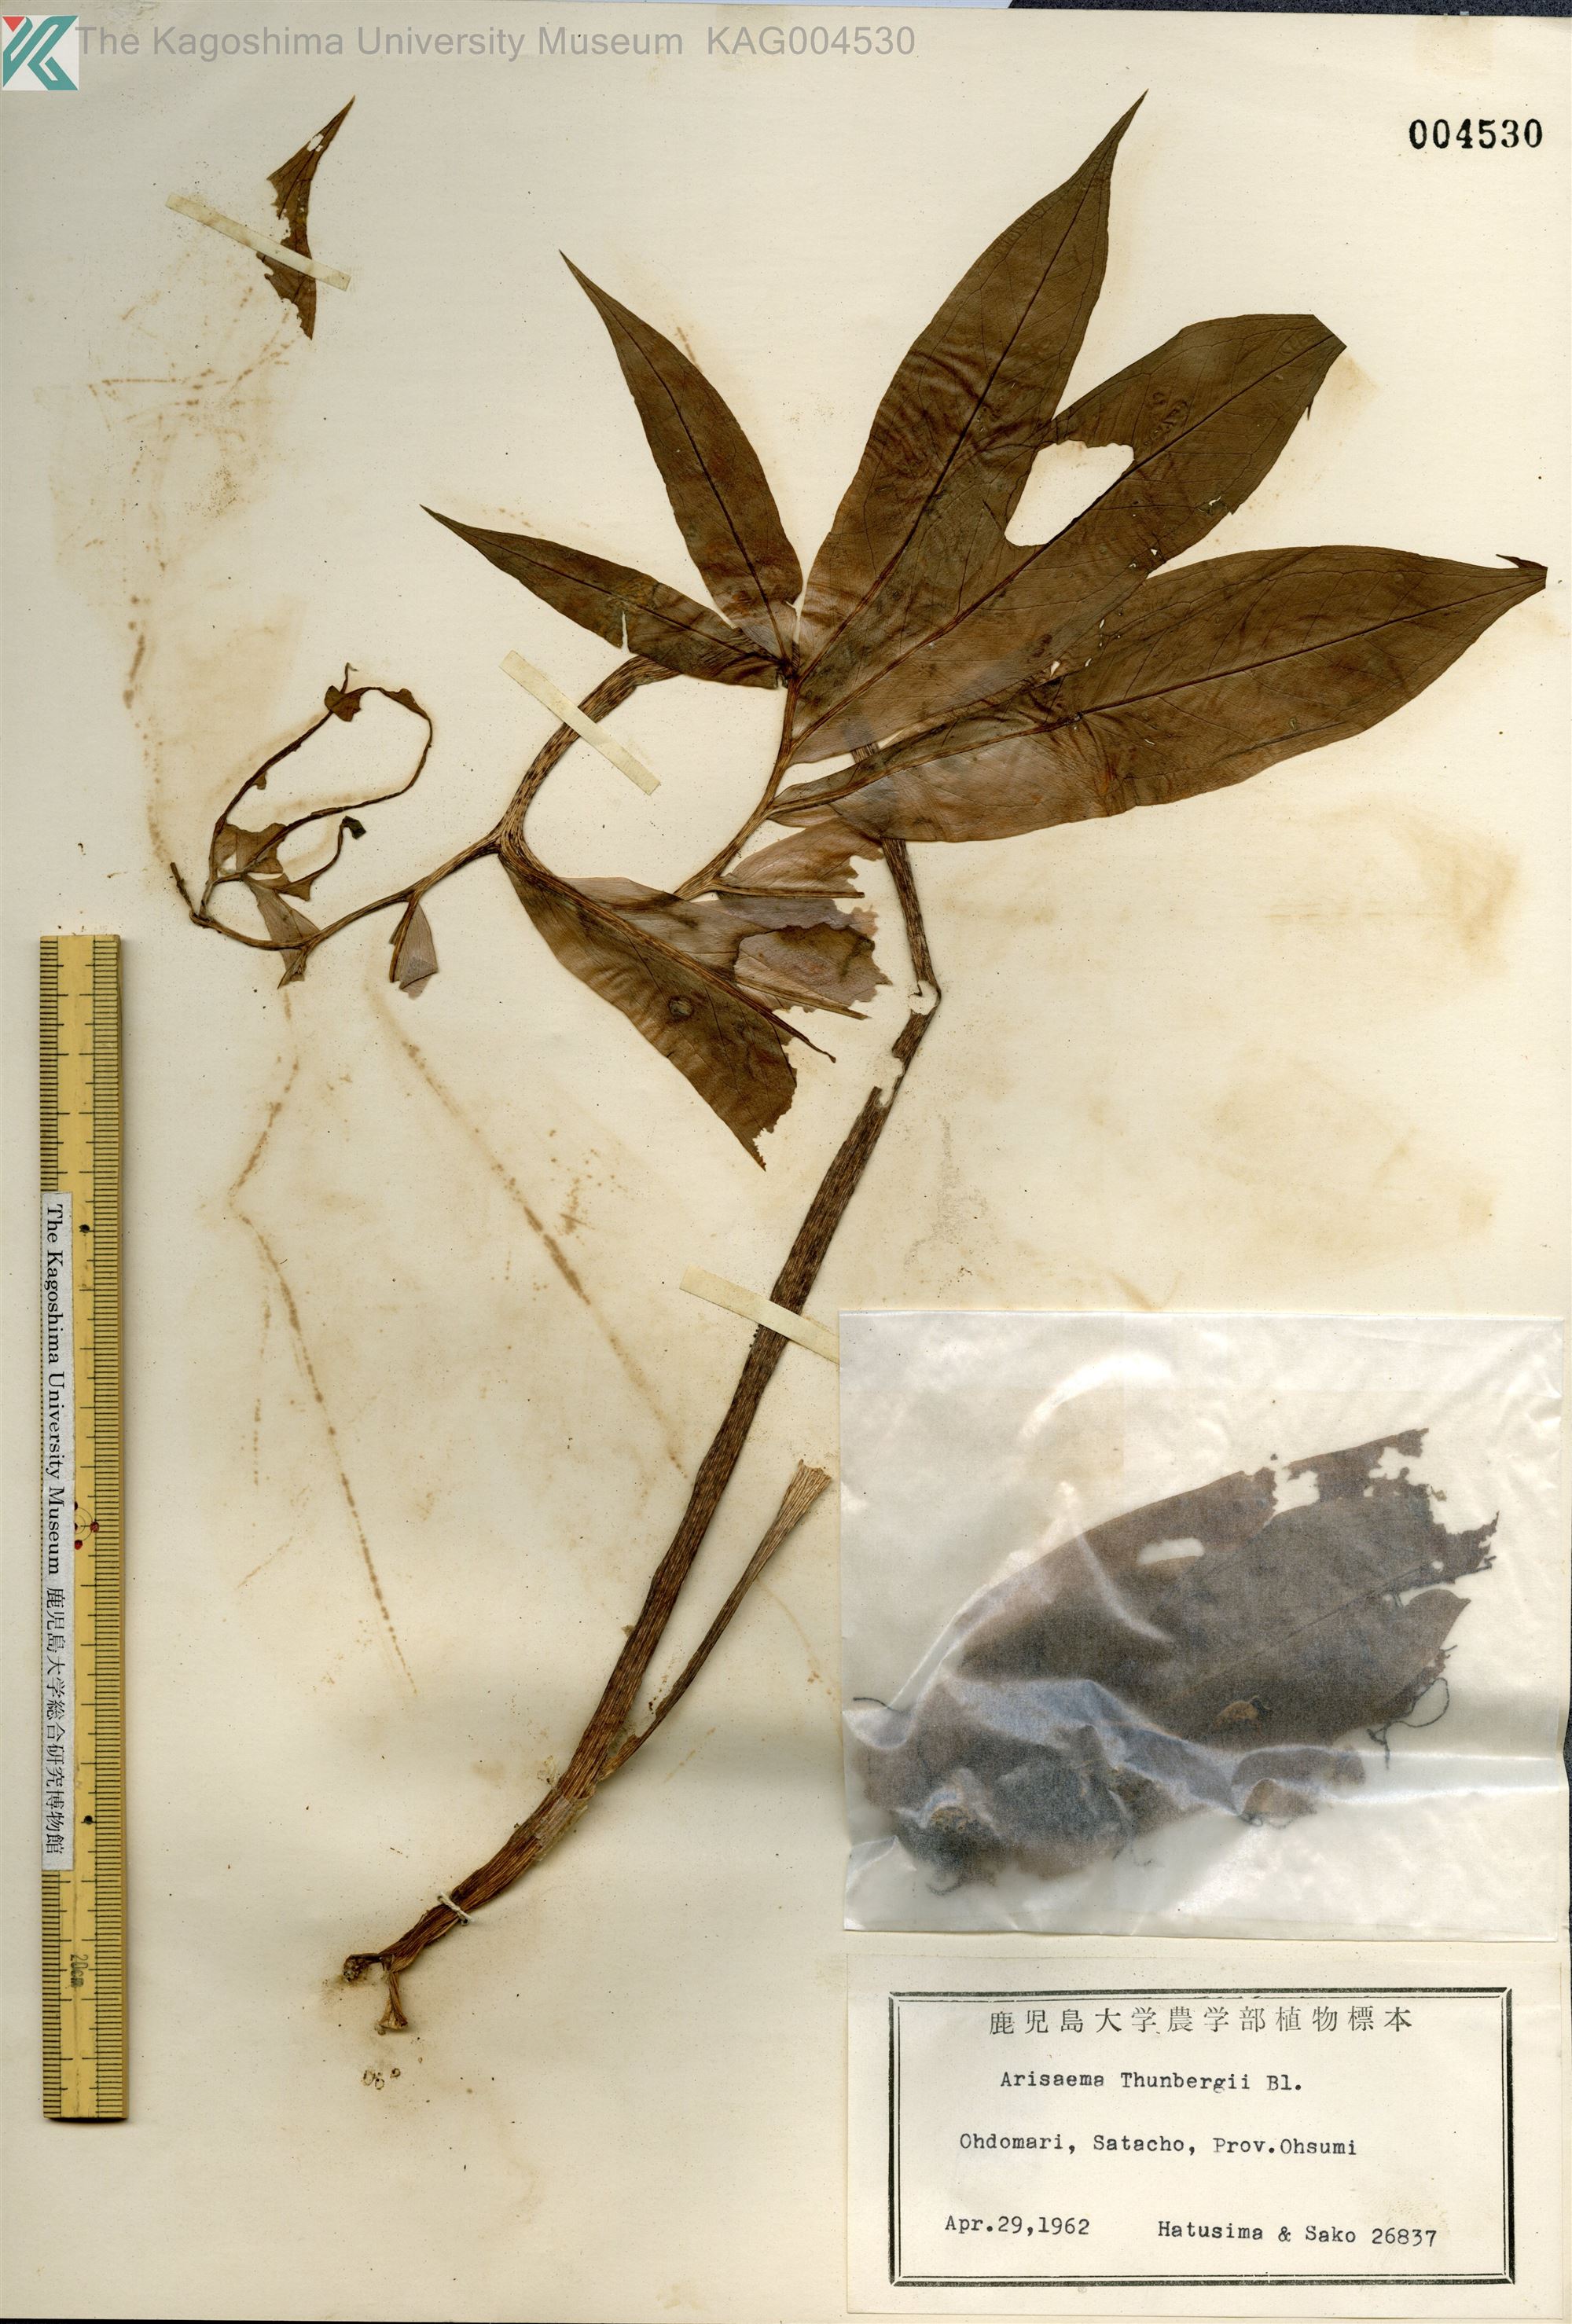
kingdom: Plantae
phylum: Tracheophyta
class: Liliopsida
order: Alismatales
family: Araceae
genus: Arisaema
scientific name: Arisaema thunbergii
